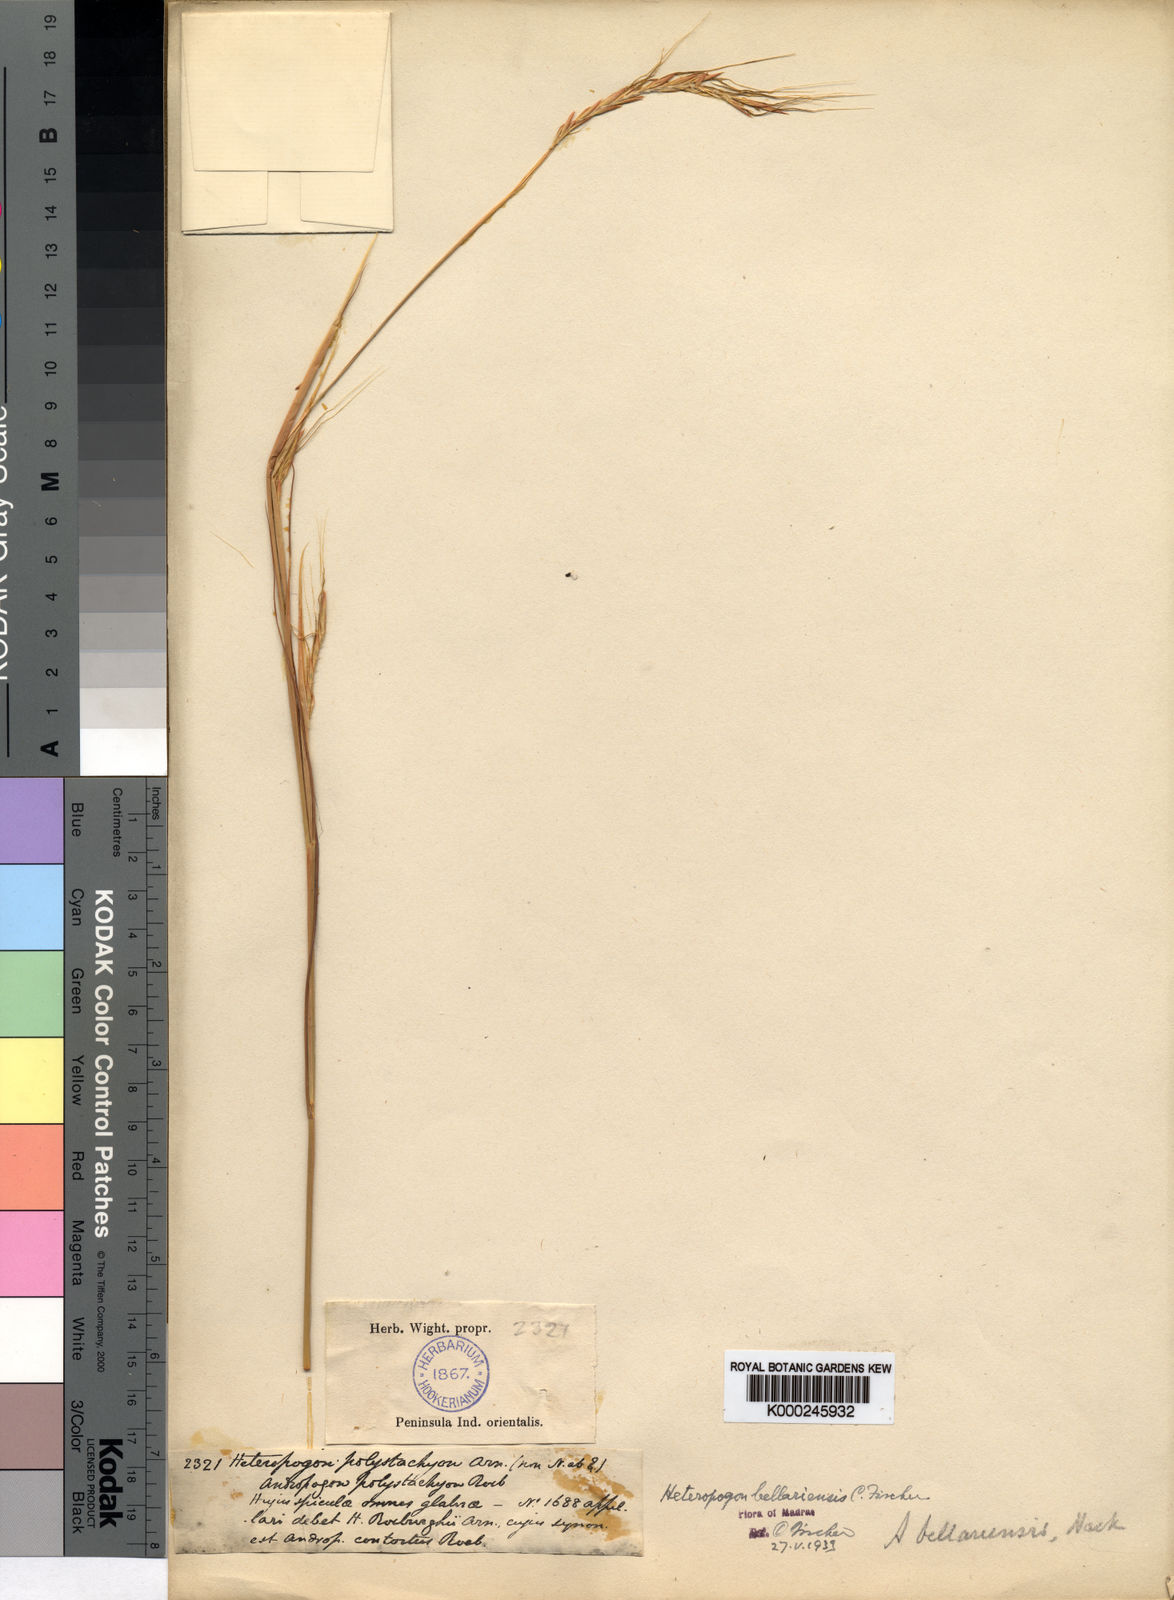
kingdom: Plantae
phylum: Tracheophyta
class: Liliopsida
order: Poales
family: Poaceae
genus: Parahyparrhenia
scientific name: Parahyparrhenia bellariensis
